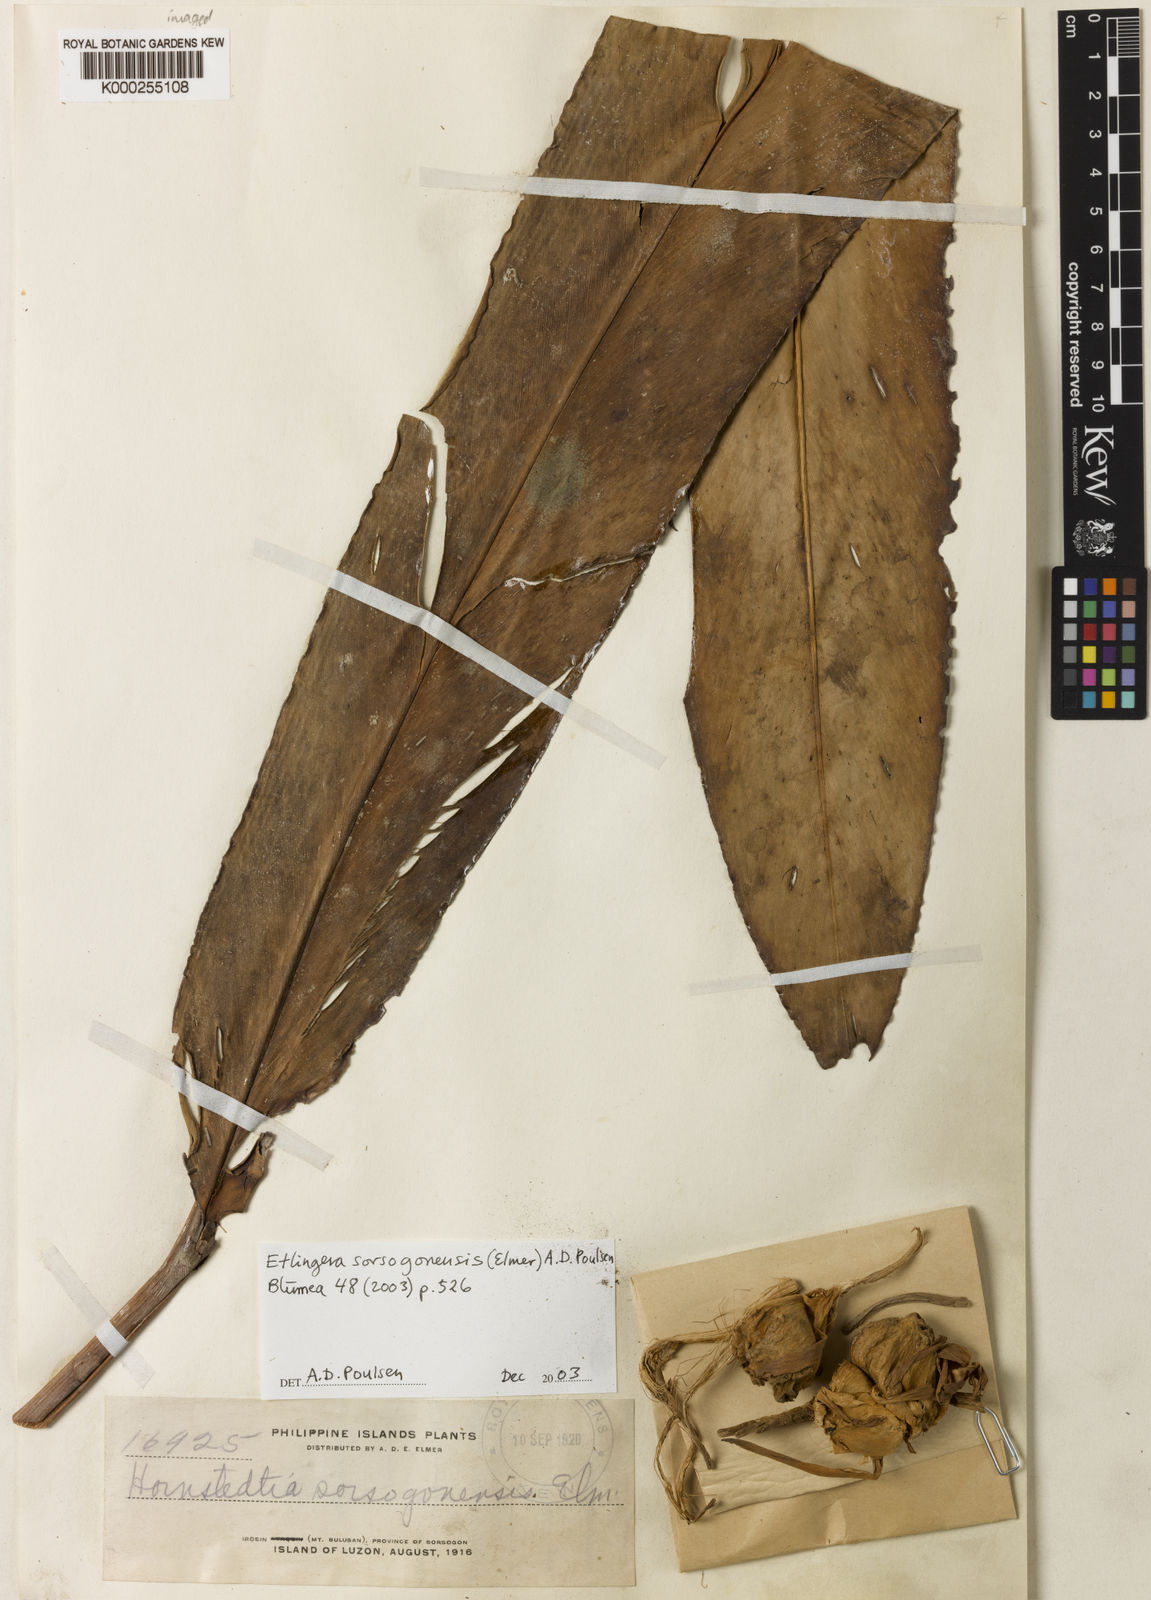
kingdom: Plantae
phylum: Tracheophyta
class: Liliopsida
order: Zingiberales
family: Zingiberaceae
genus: Etlingera
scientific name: Etlingera sorsogonensis
